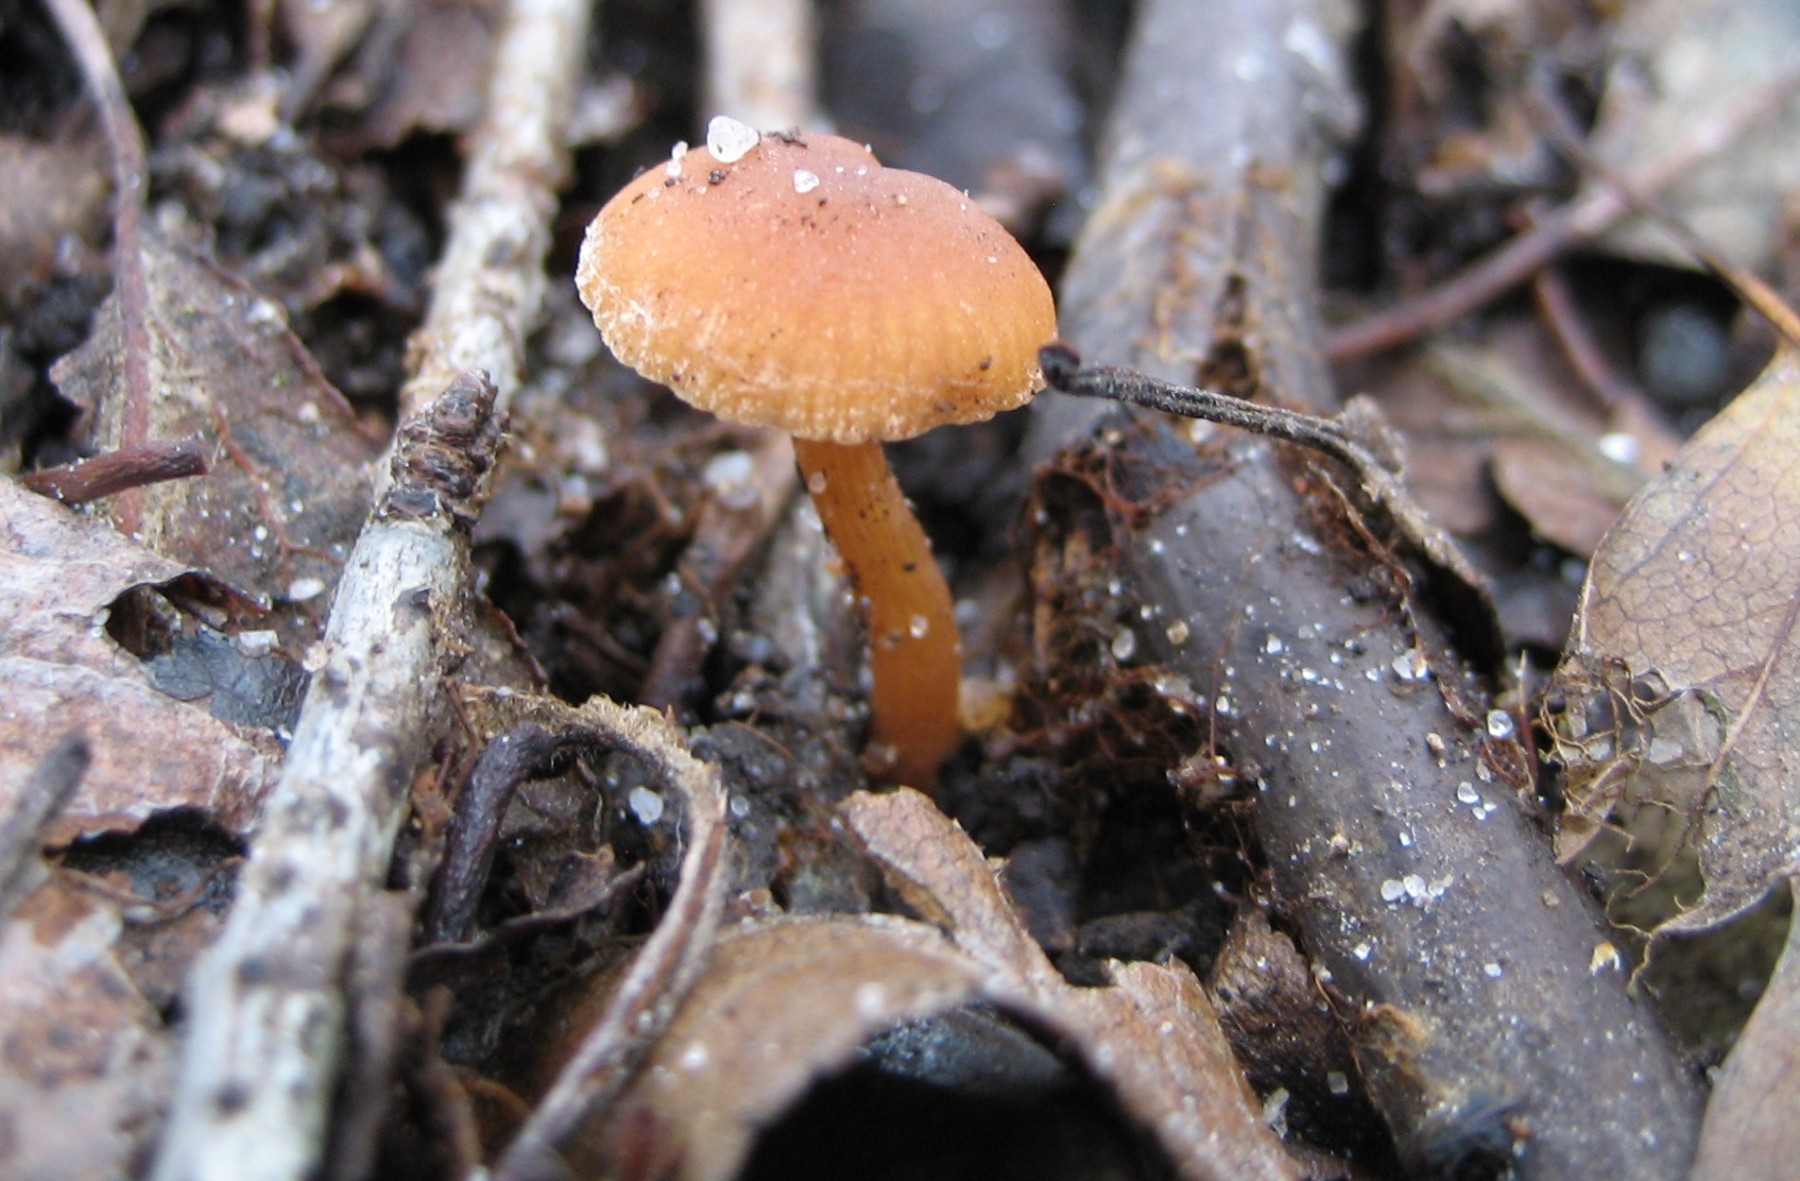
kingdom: Fungi
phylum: Basidiomycota
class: Agaricomycetes
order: Agaricales
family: Tubariaceae
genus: Tubaria
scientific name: Tubaria furfuracea
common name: kliddet fnughat
